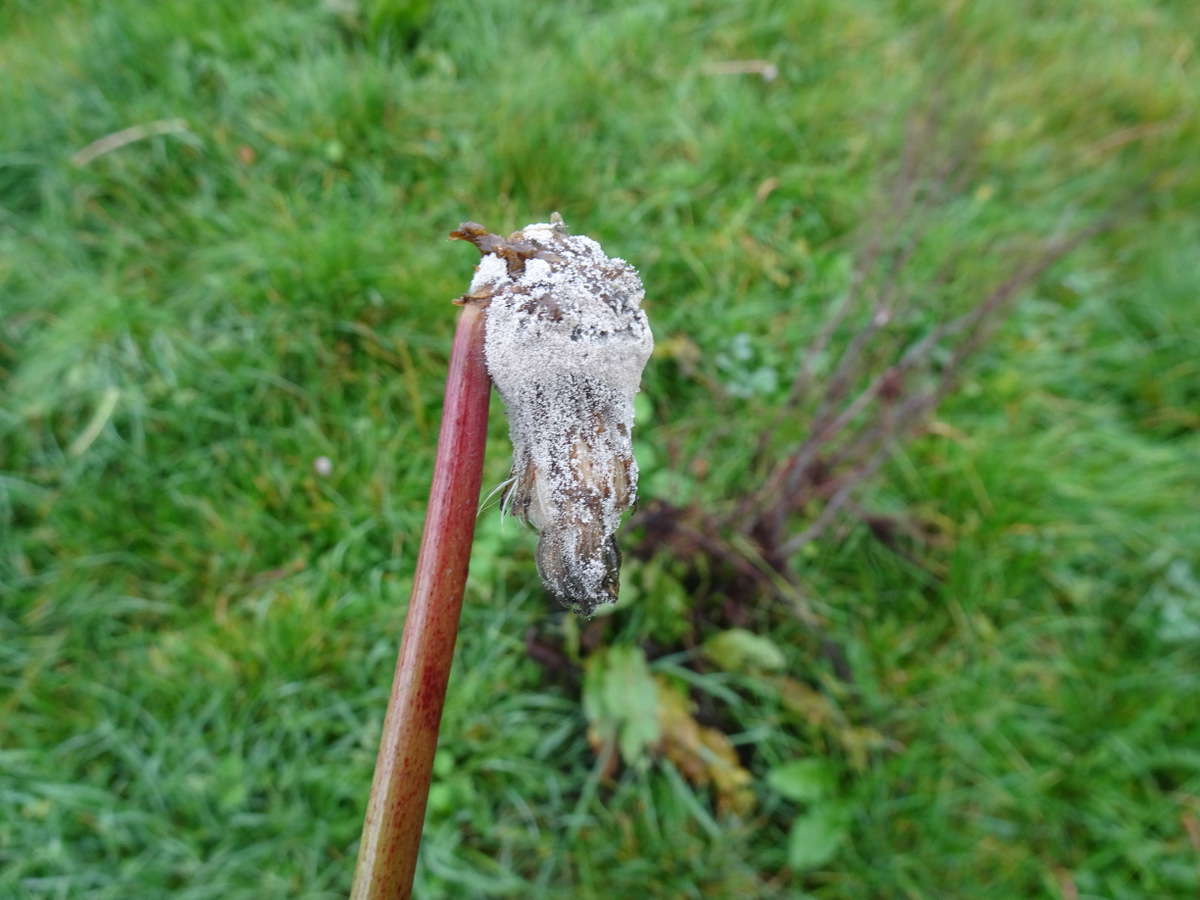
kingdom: Fungi
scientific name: Fungi
